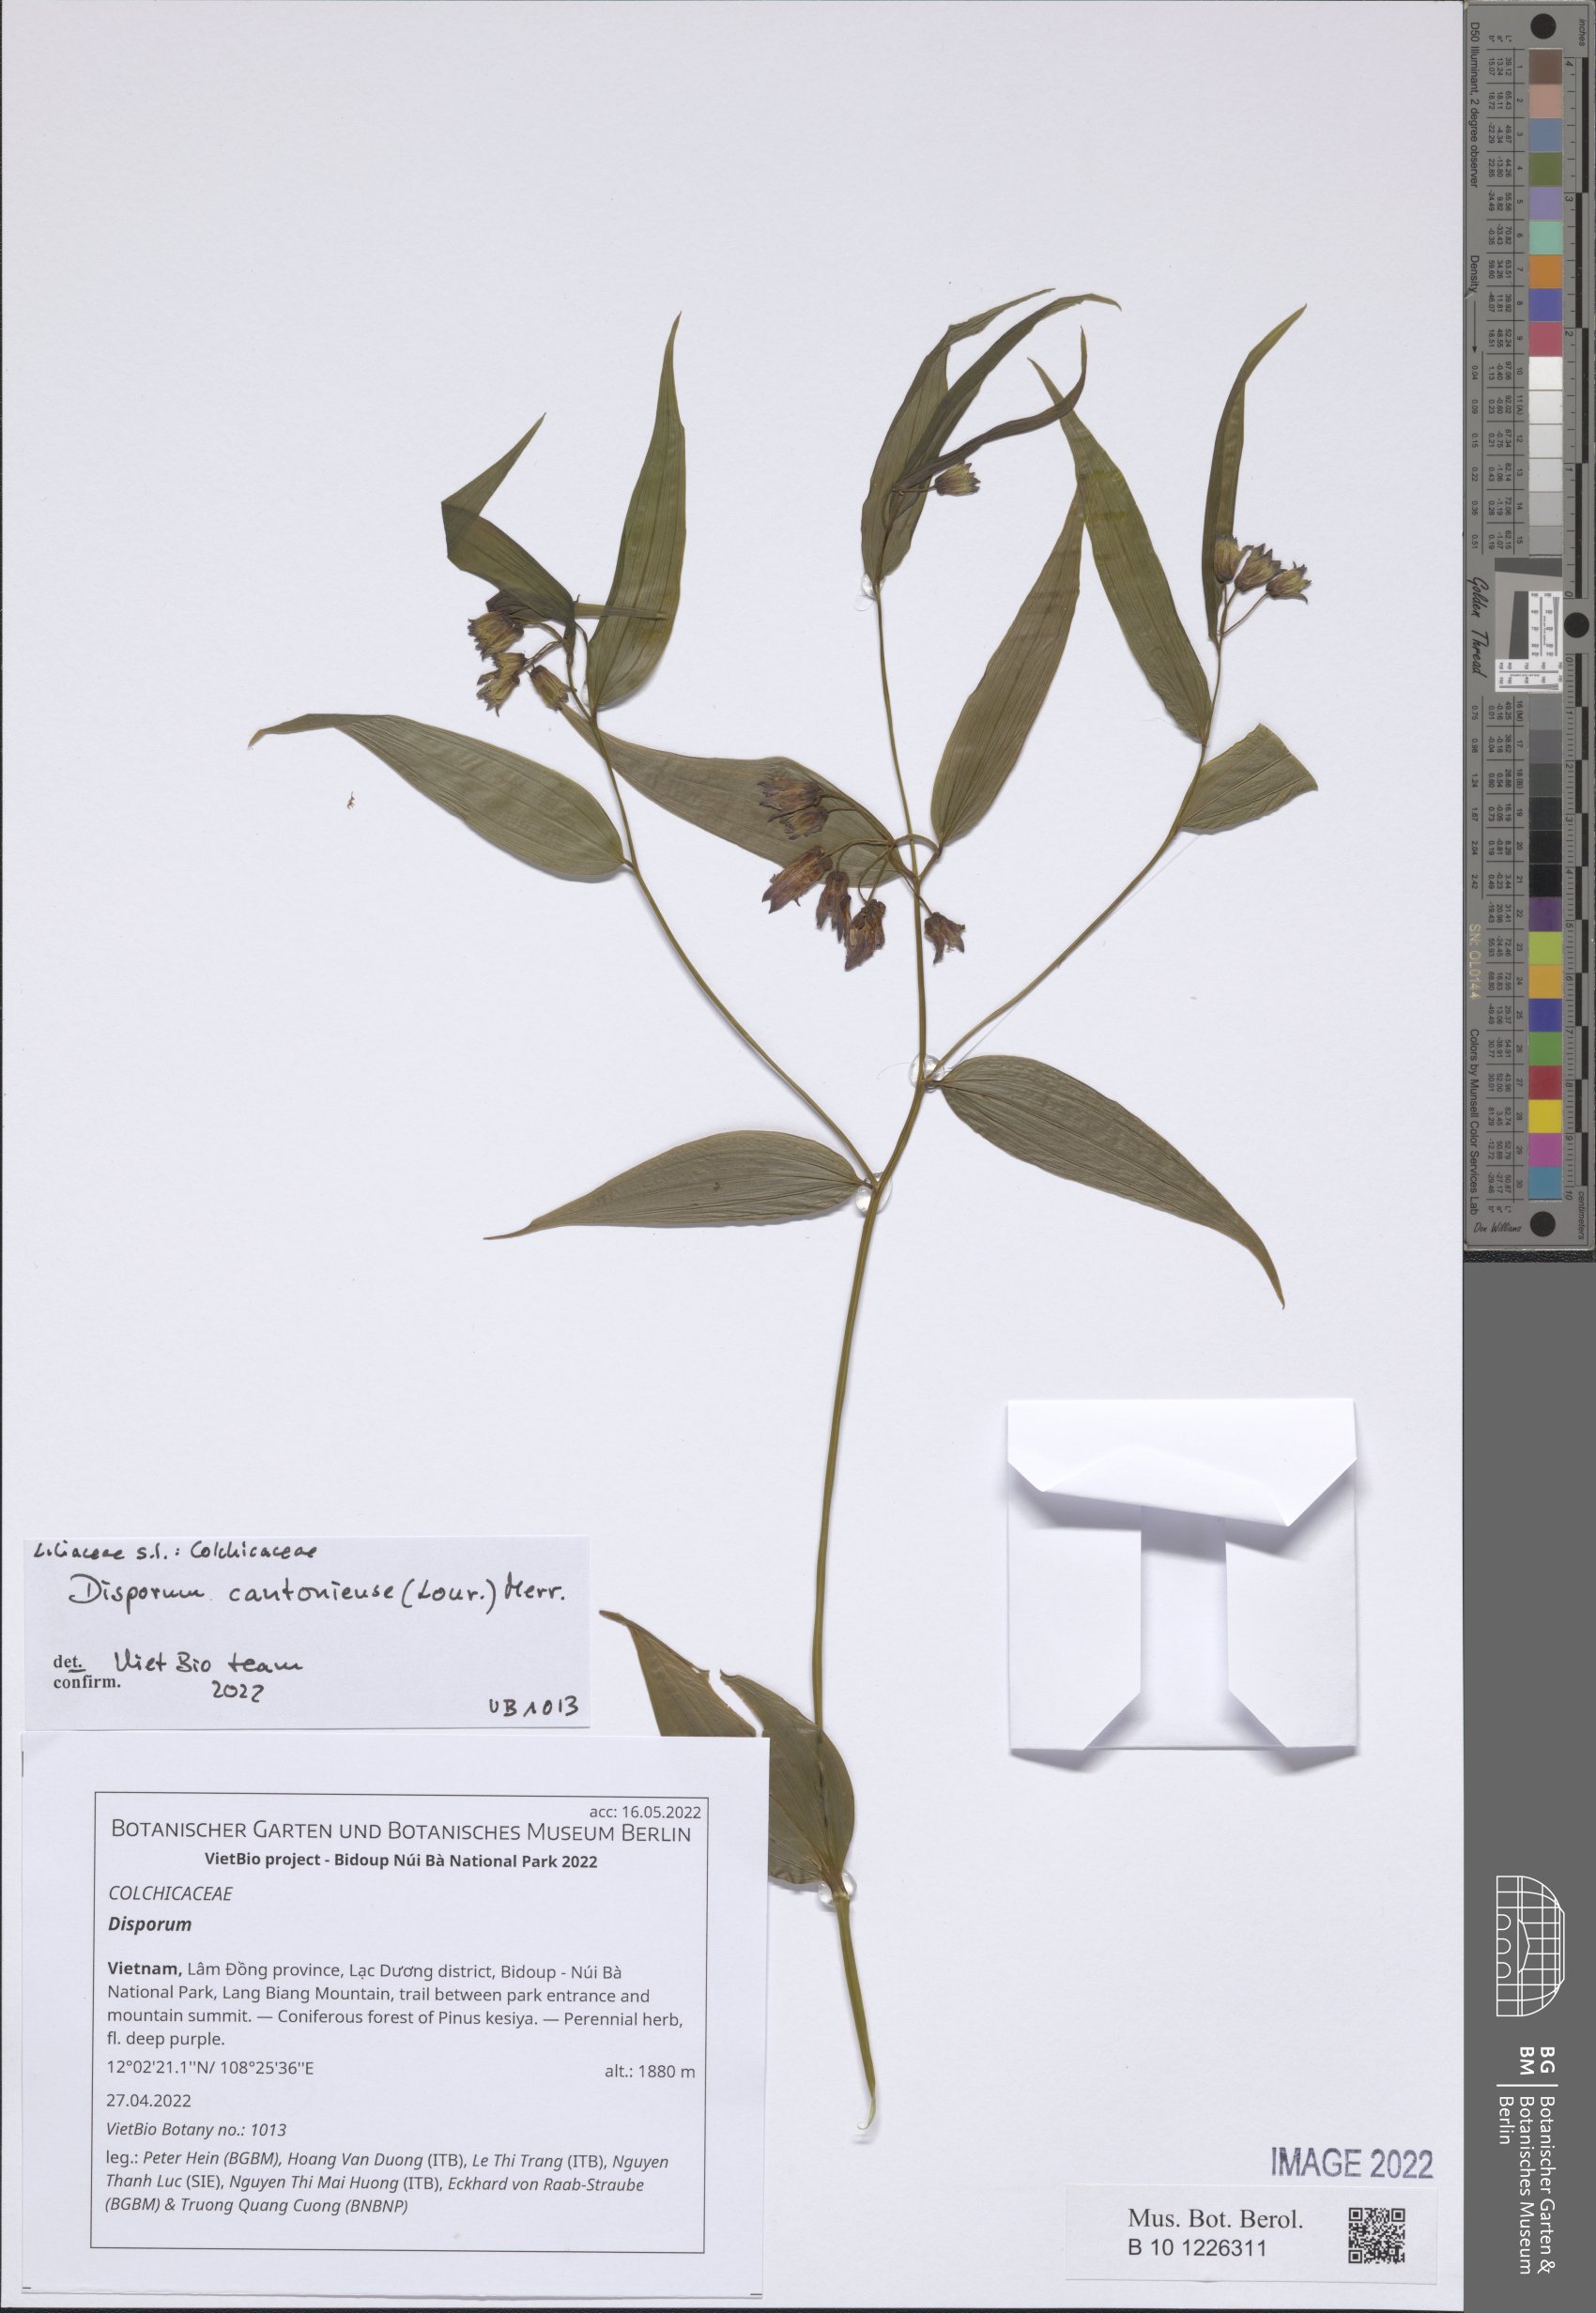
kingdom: Plantae
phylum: Tracheophyta
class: Liliopsida
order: Liliales
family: Colchicaceae
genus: Disporum
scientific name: Disporum
